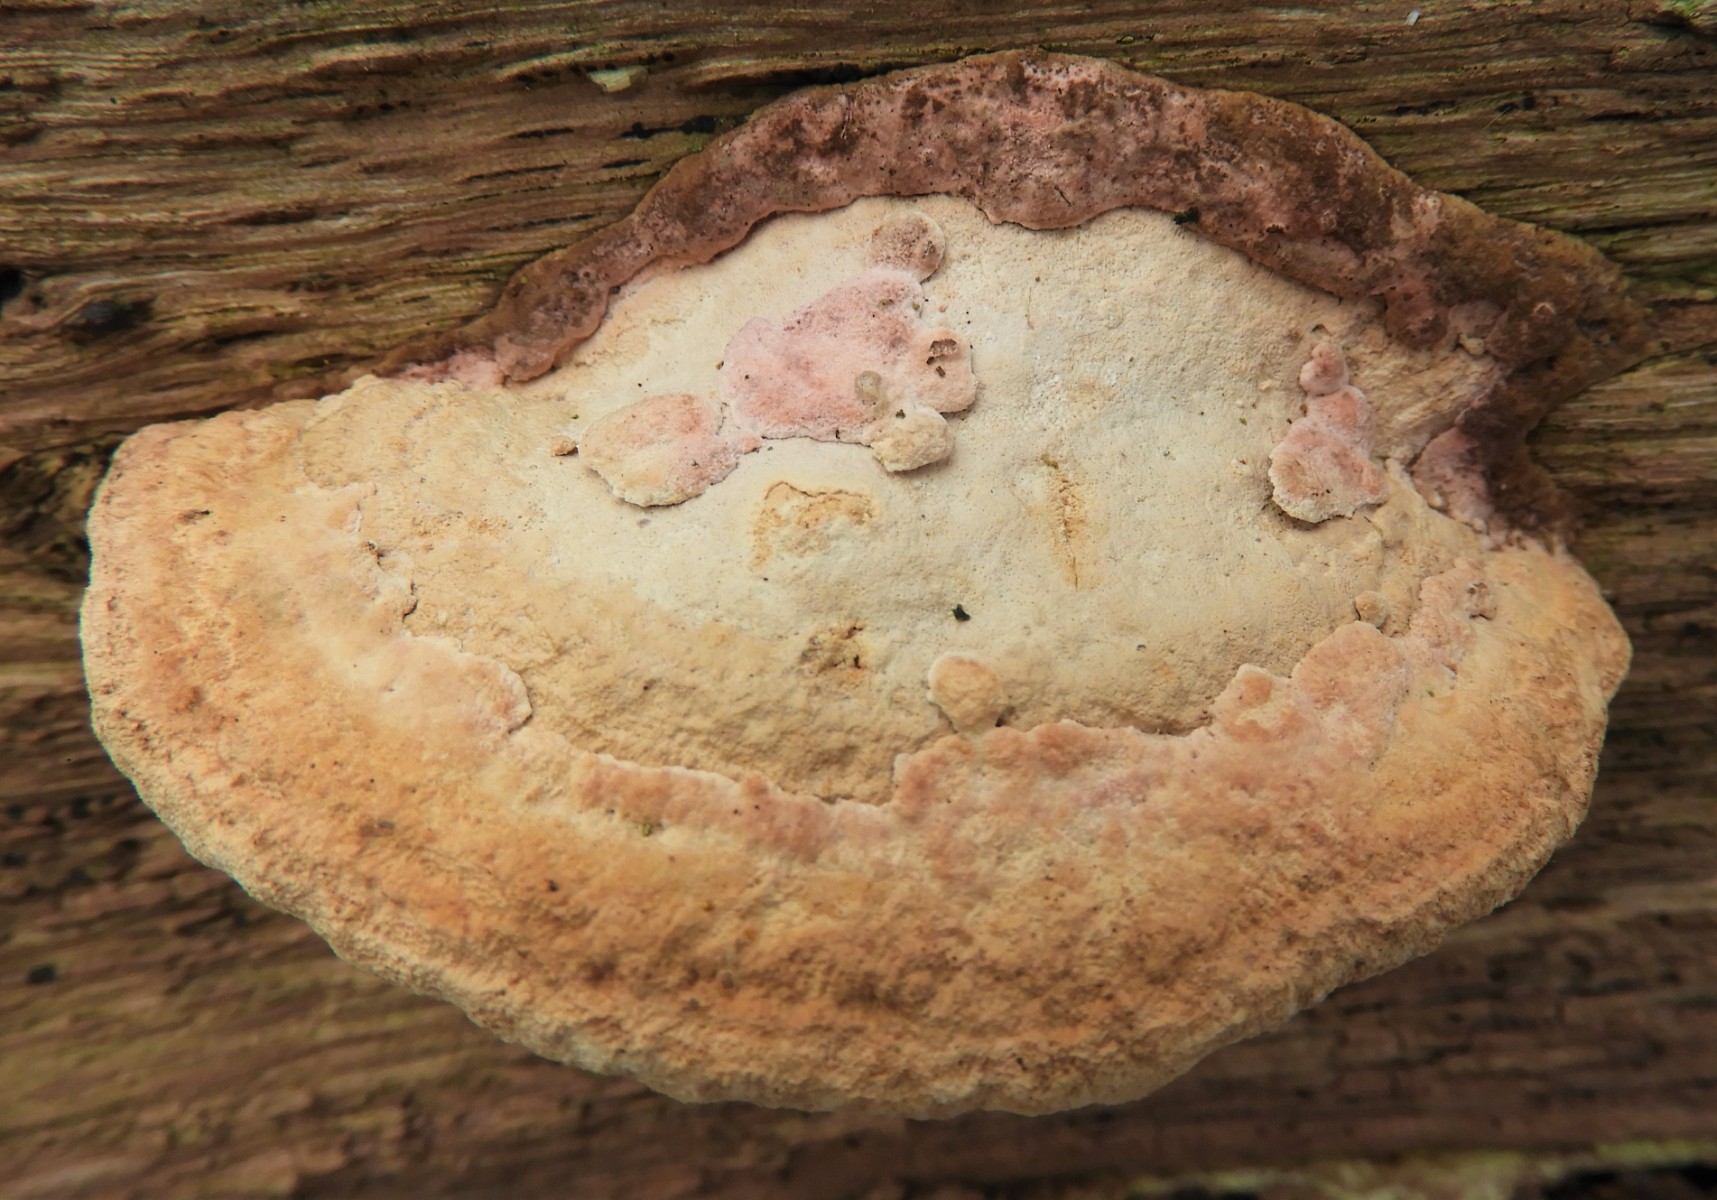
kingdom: Fungi
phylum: Basidiomycota
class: Agaricomycetes
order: Polyporales
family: Fomitopsidaceae
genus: Daedalea
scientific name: Daedalea quercina
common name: ege-labyrintsvamp
